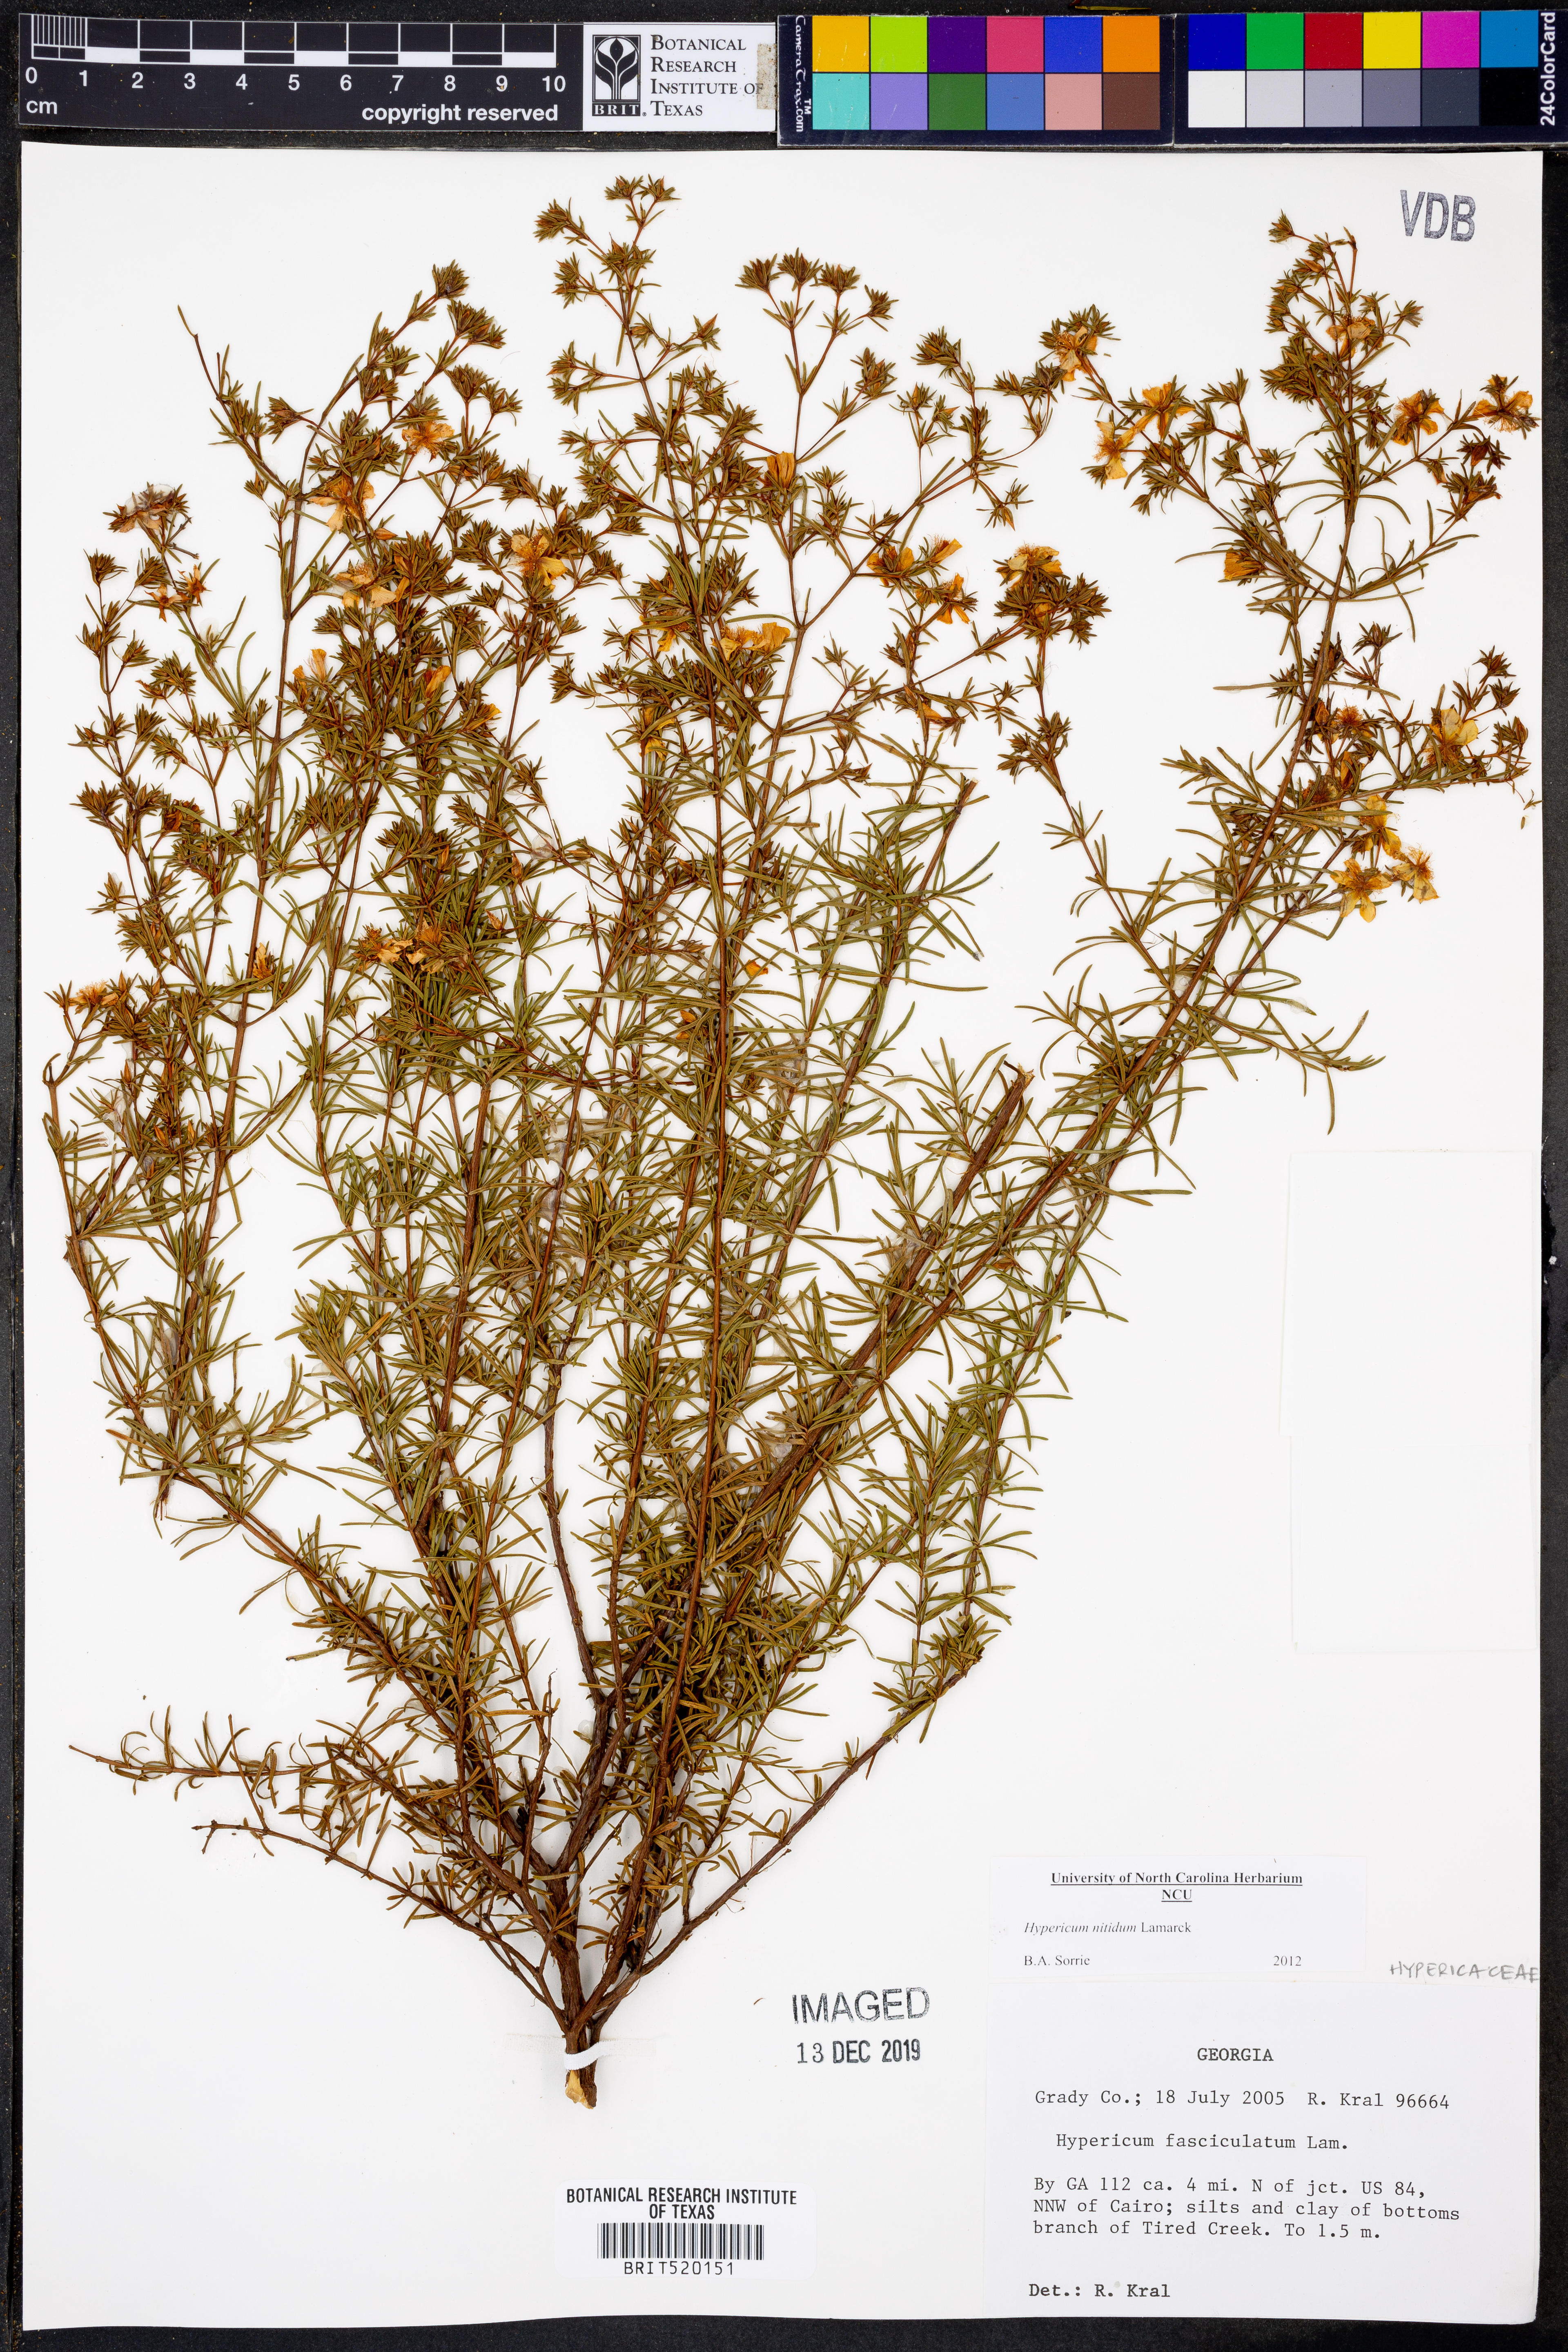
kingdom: Plantae
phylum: Tracheophyta
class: Magnoliopsida
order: Malpighiales
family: Hypericaceae
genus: Hypericum
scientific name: Hypericum nitidum
